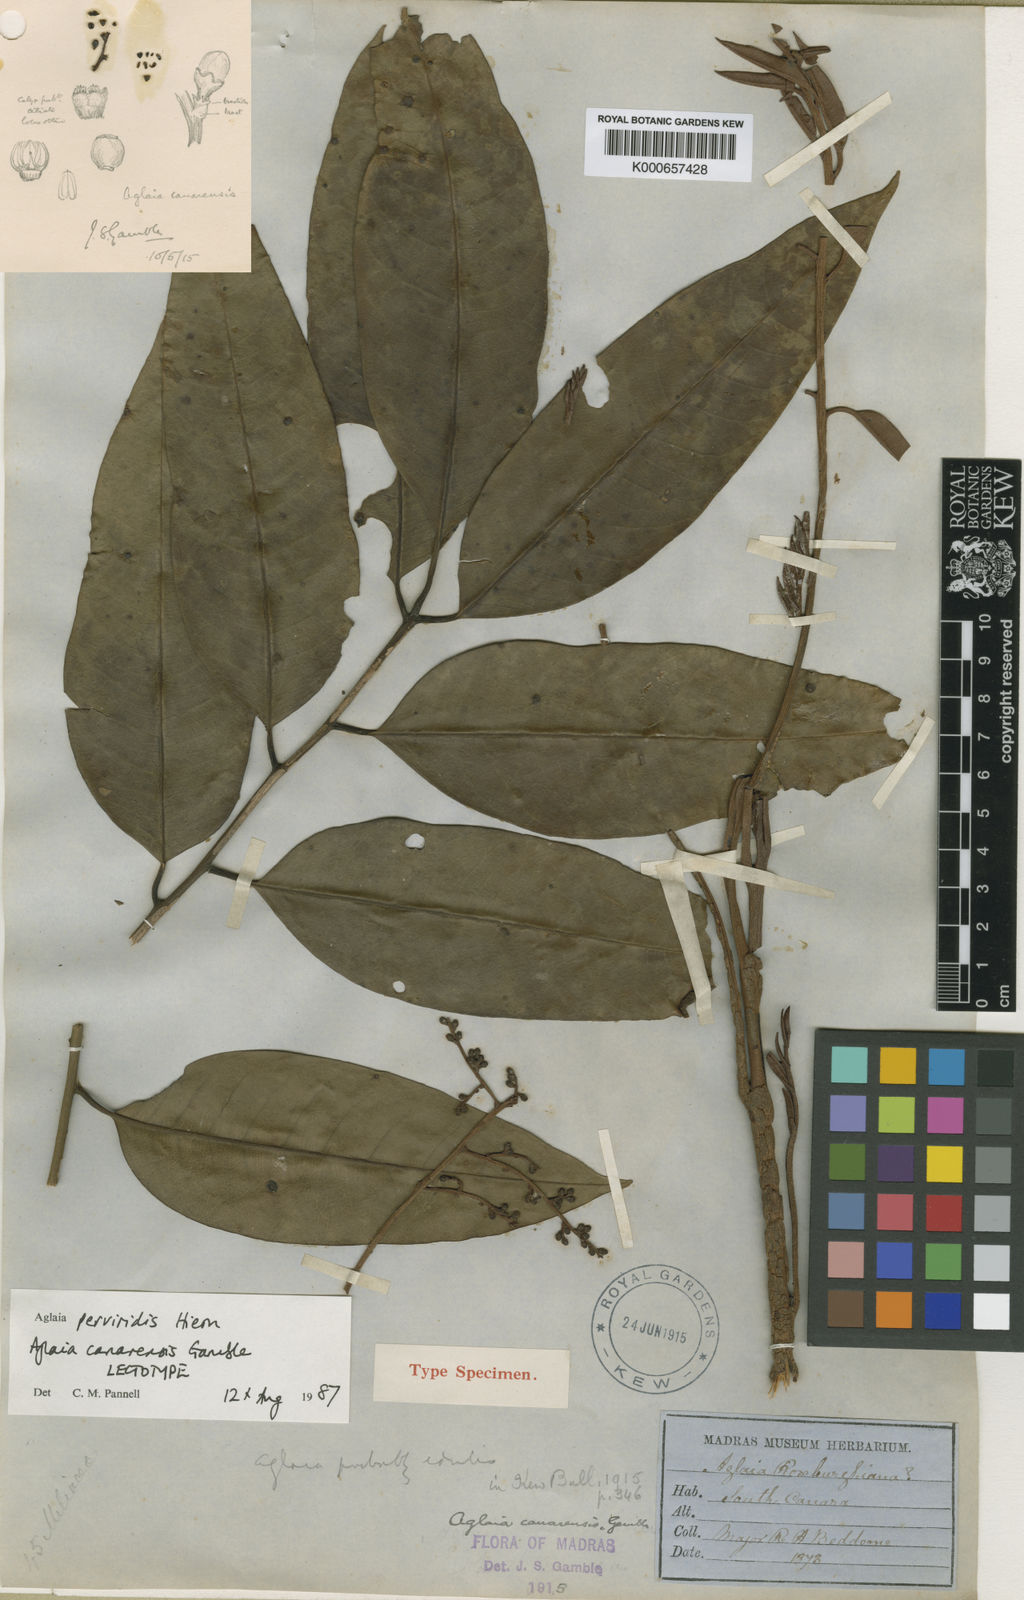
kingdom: Plantae
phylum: Tracheophyta
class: Magnoliopsida
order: Sapindales
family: Meliaceae
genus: Aglaia
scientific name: Aglaia perviridis
